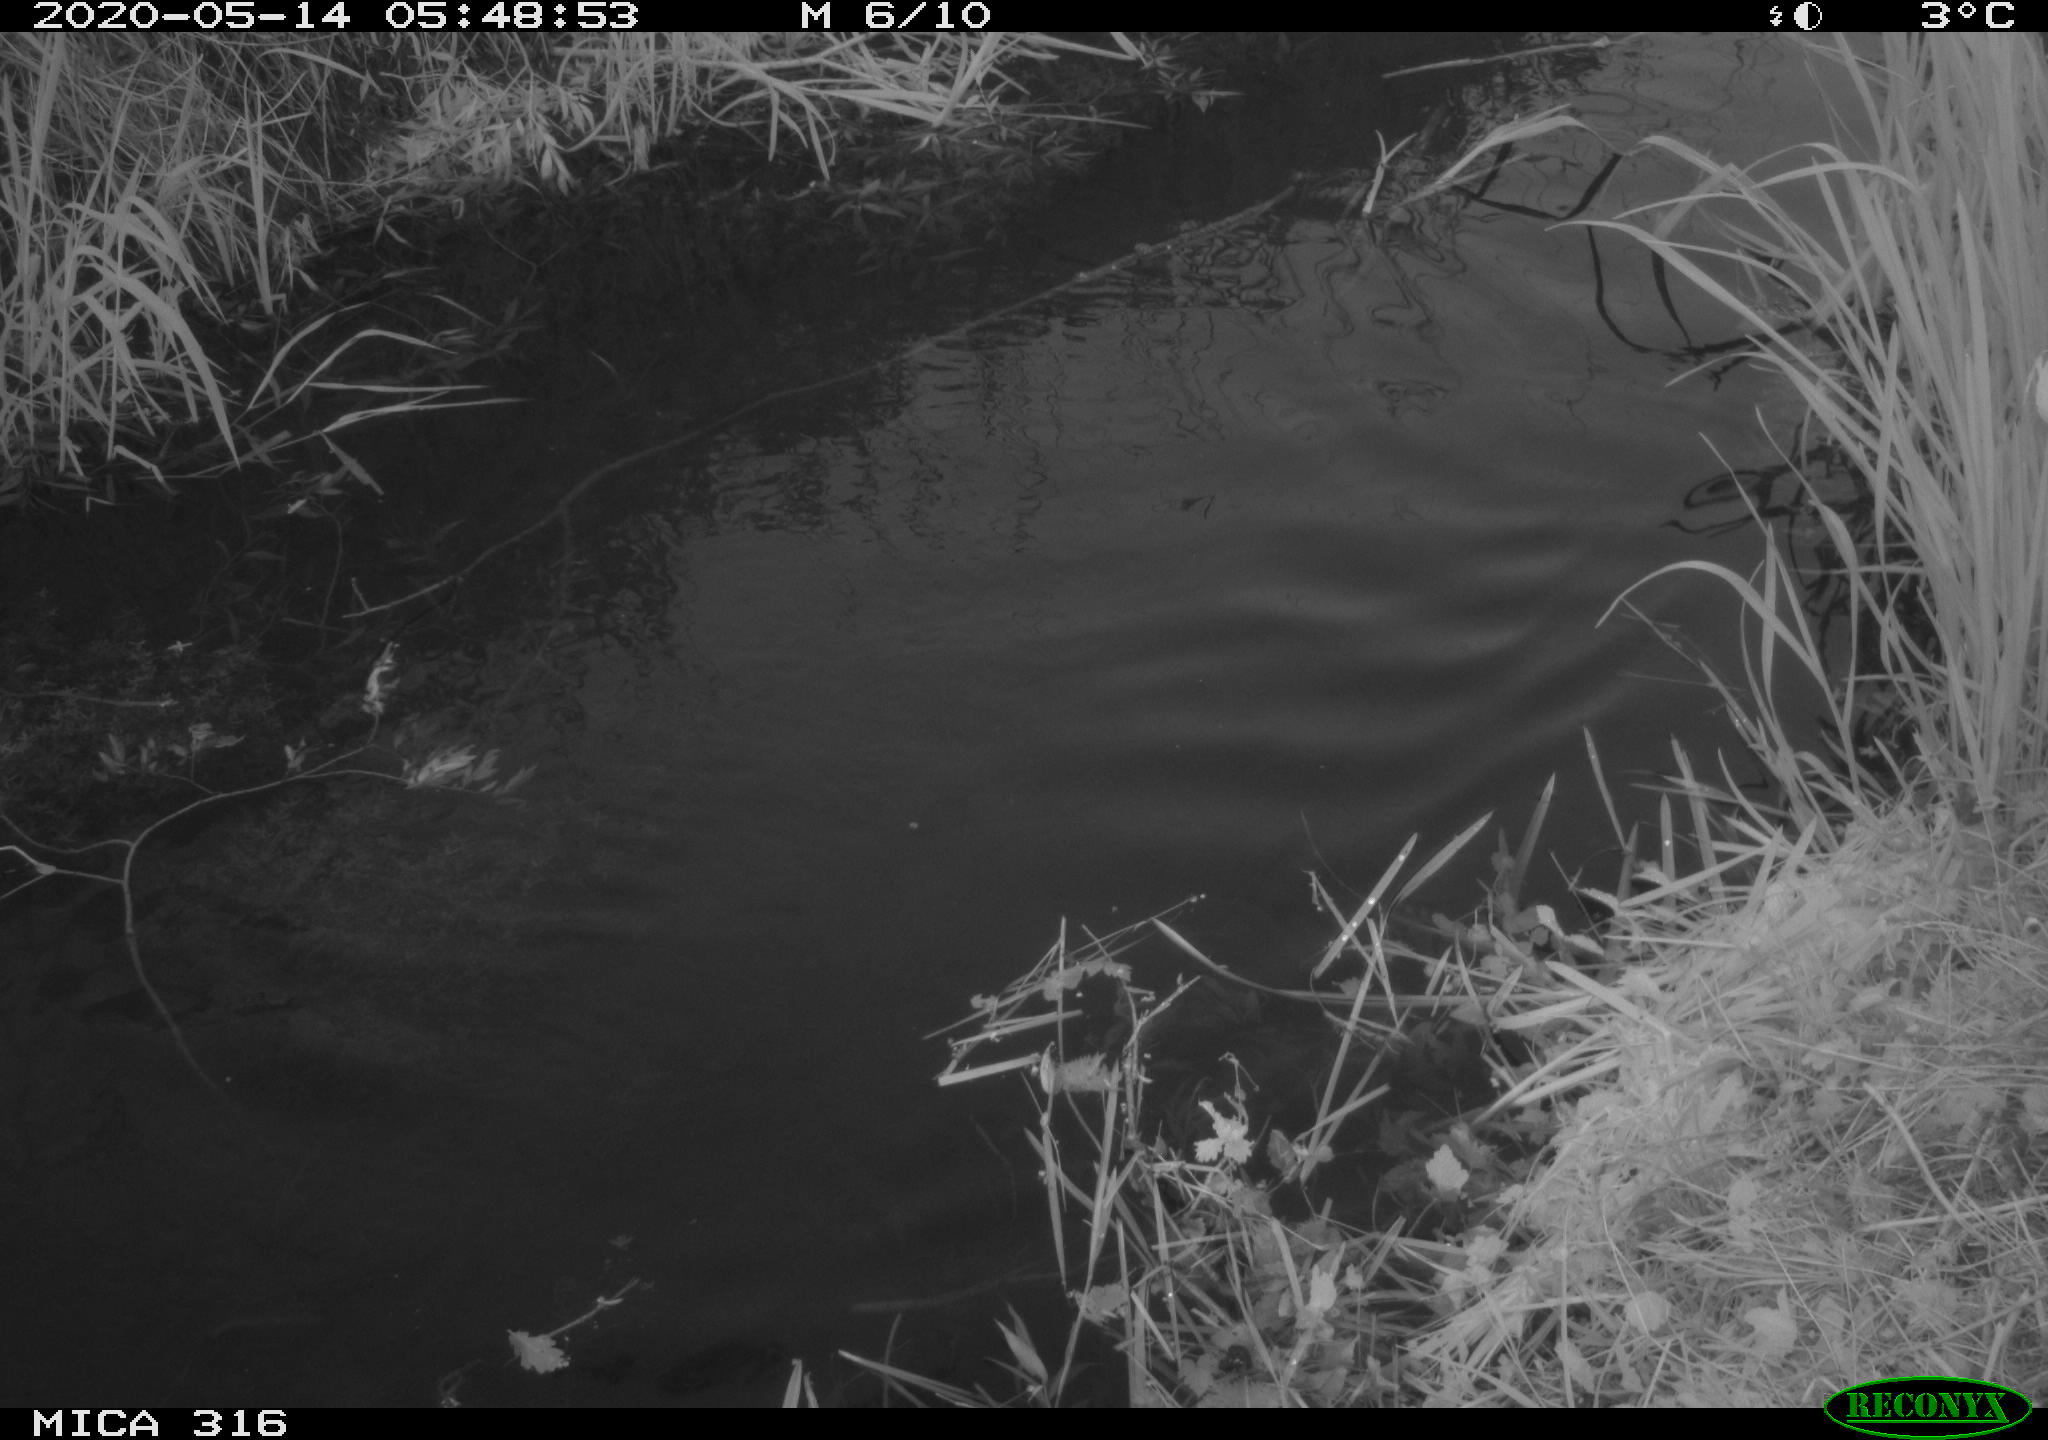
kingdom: Animalia
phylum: Chordata
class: Aves
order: Anseriformes
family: Anatidae
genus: Anas
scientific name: Anas platyrhynchos
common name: Mallard
